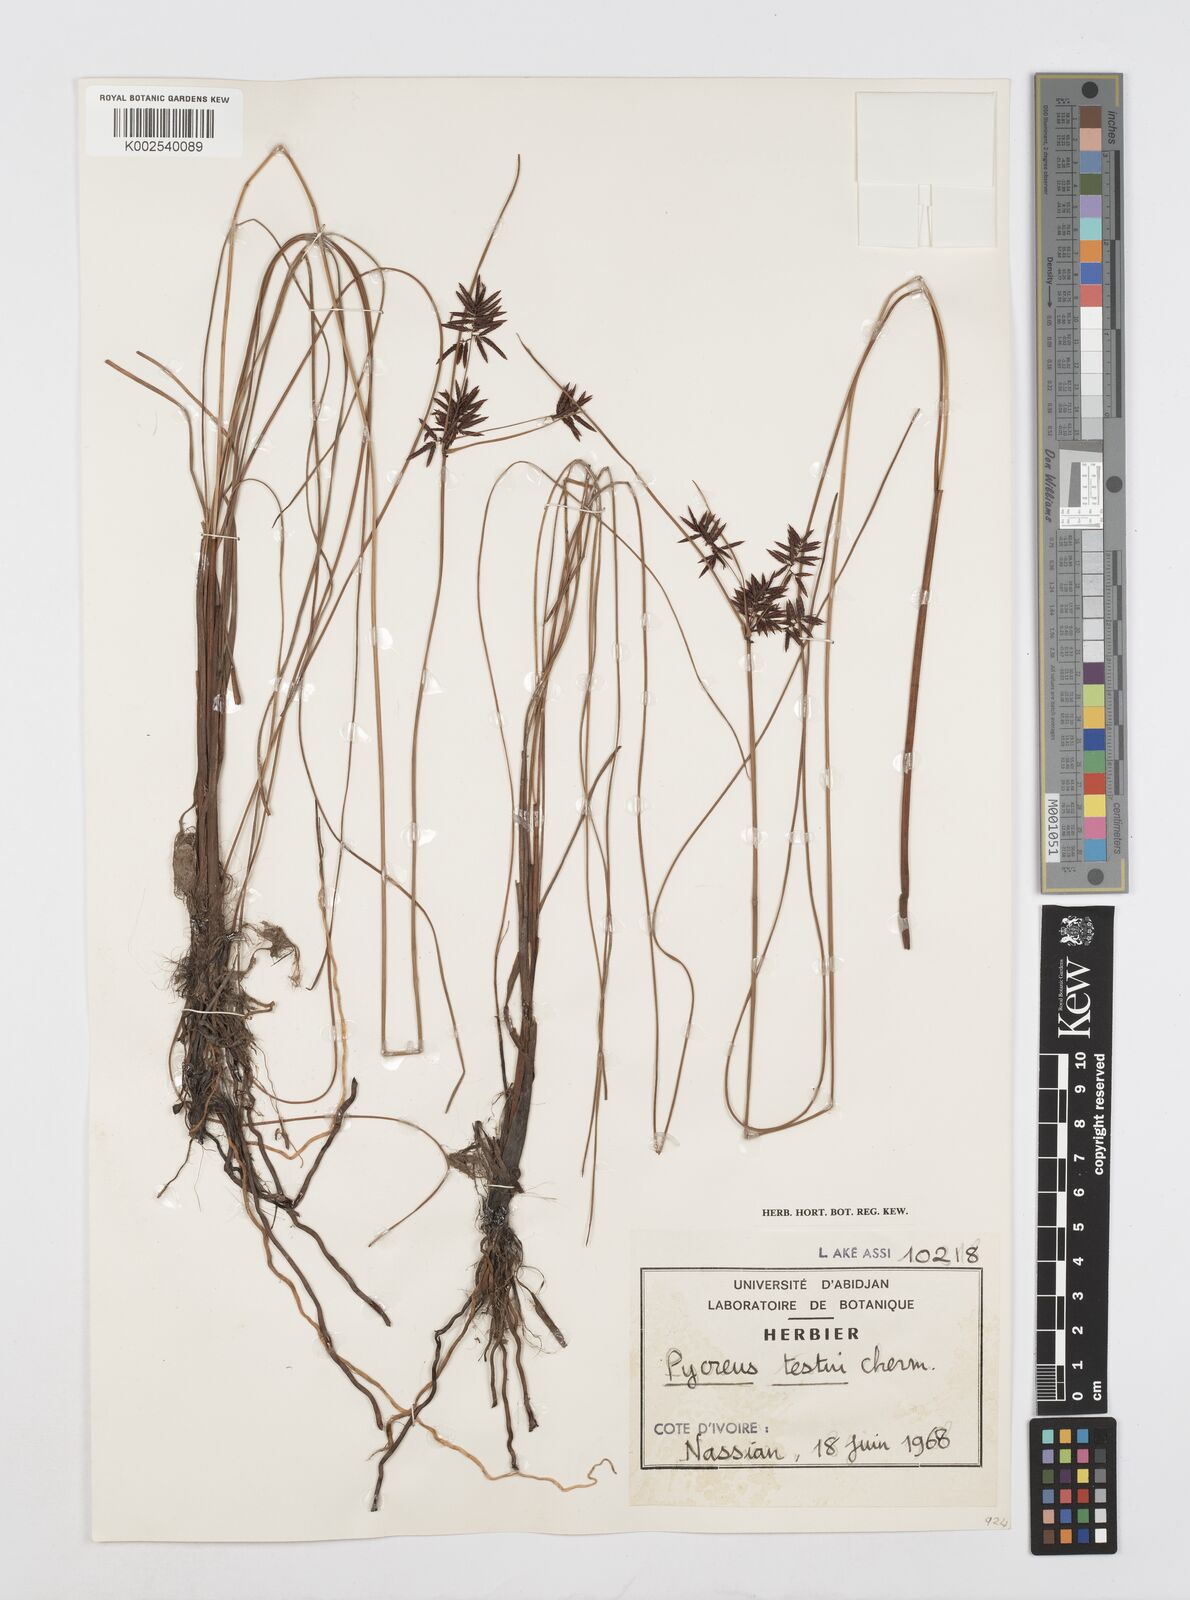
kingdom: Plantae
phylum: Tracheophyta
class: Liliopsida
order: Poales
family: Cyperaceae
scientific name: Cyperaceae
